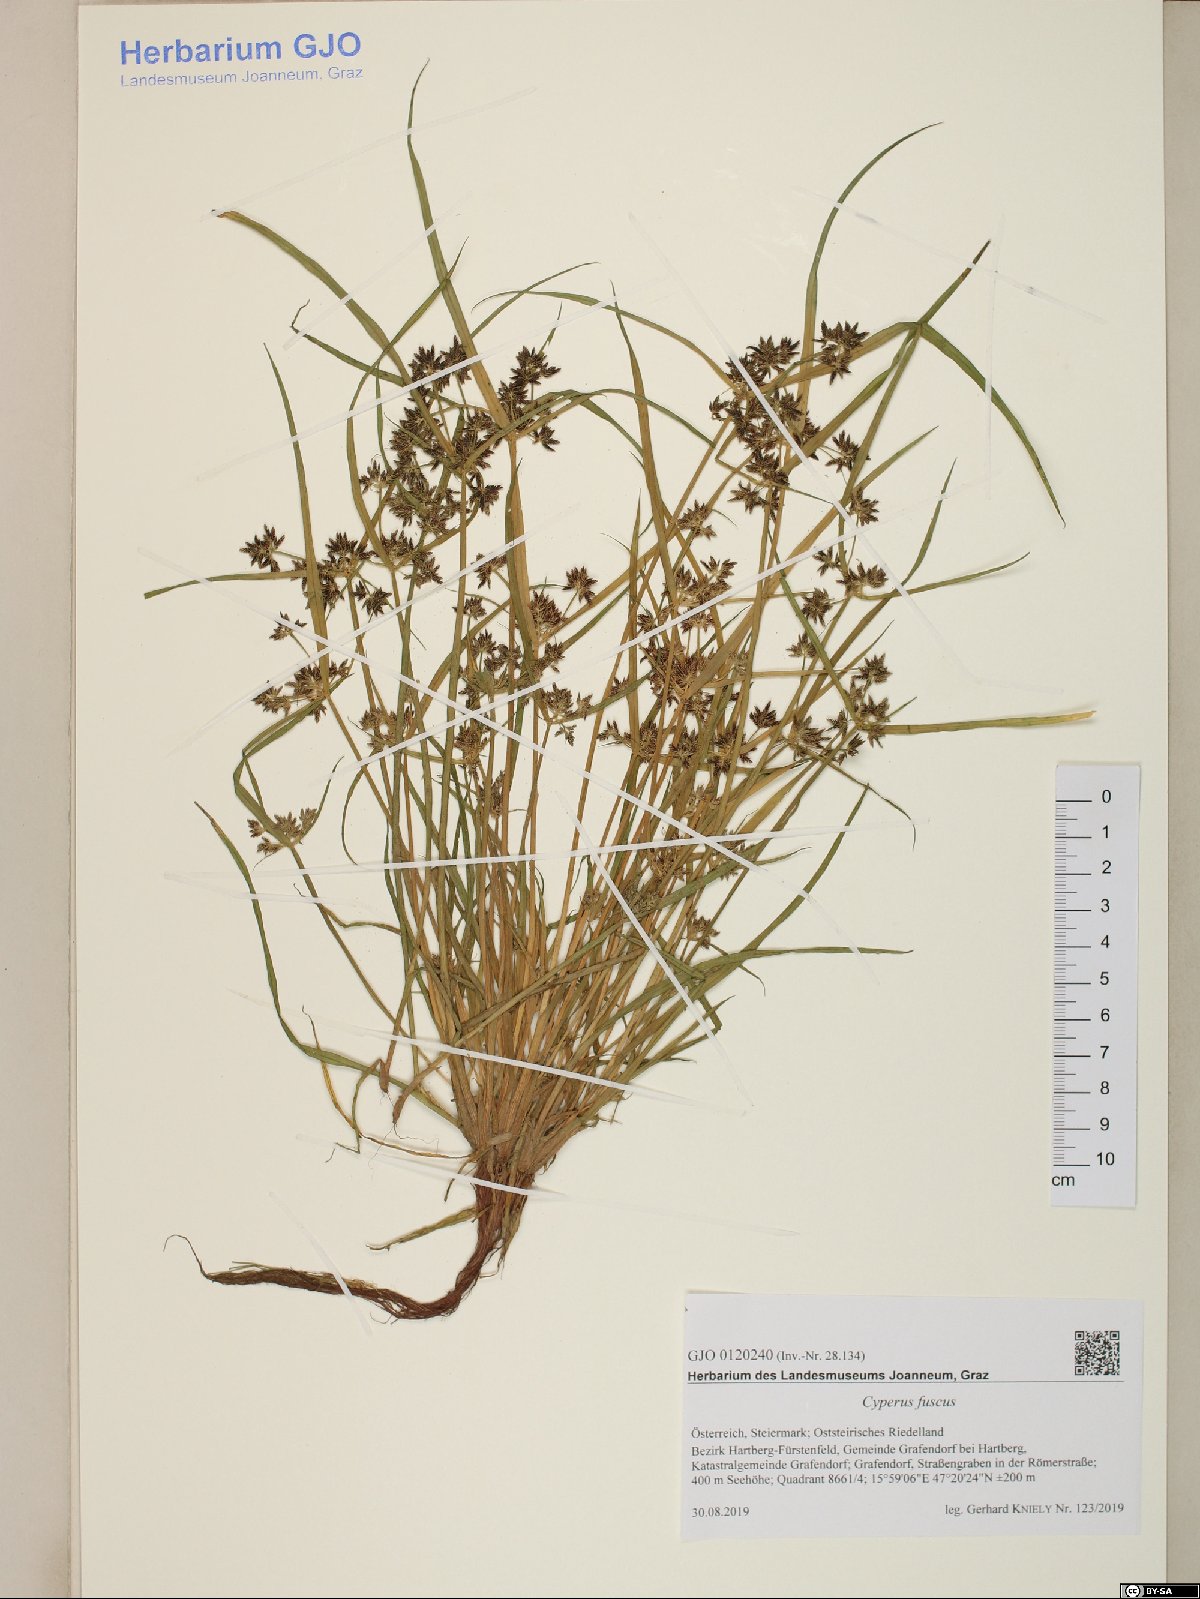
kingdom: Plantae
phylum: Tracheophyta
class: Liliopsida
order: Poales
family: Cyperaceae
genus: Cyperus
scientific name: Cyperus fuscus
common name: Brown galingale
